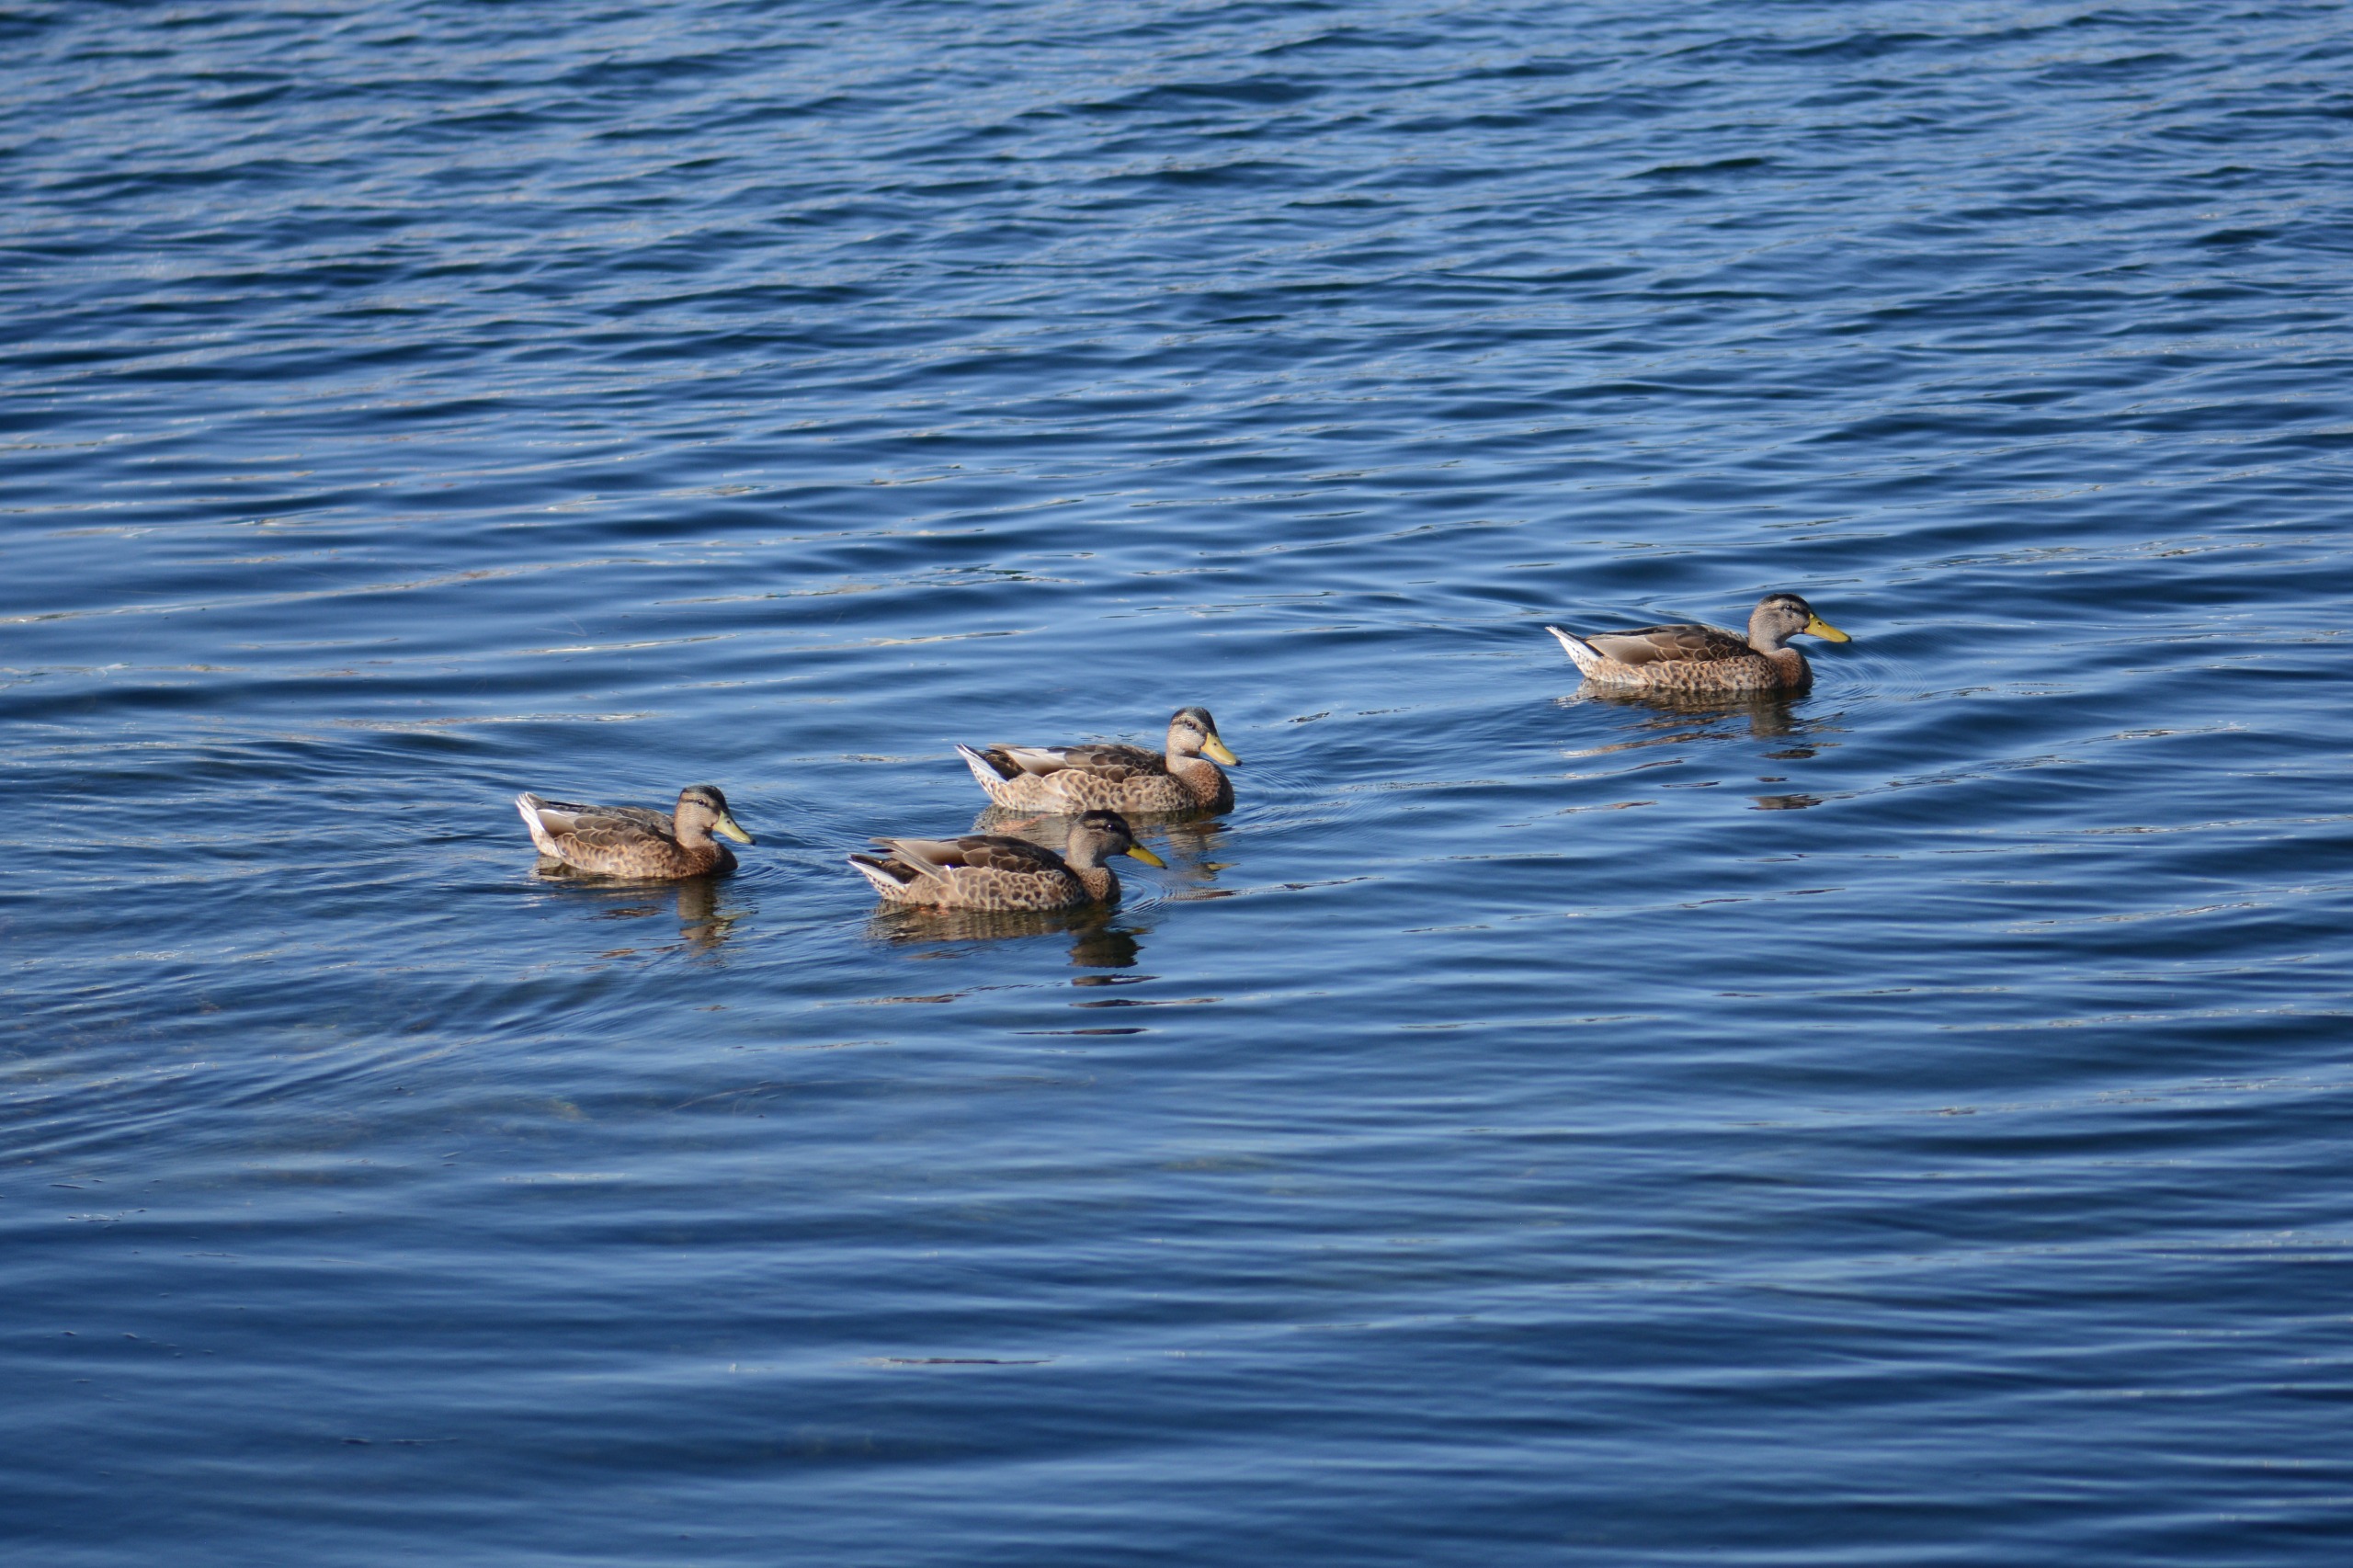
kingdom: Animalia
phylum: Chordata
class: Aves
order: Anseriformes
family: Anatidae
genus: Anas
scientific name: Anas platyrhynchos
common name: Gråand
